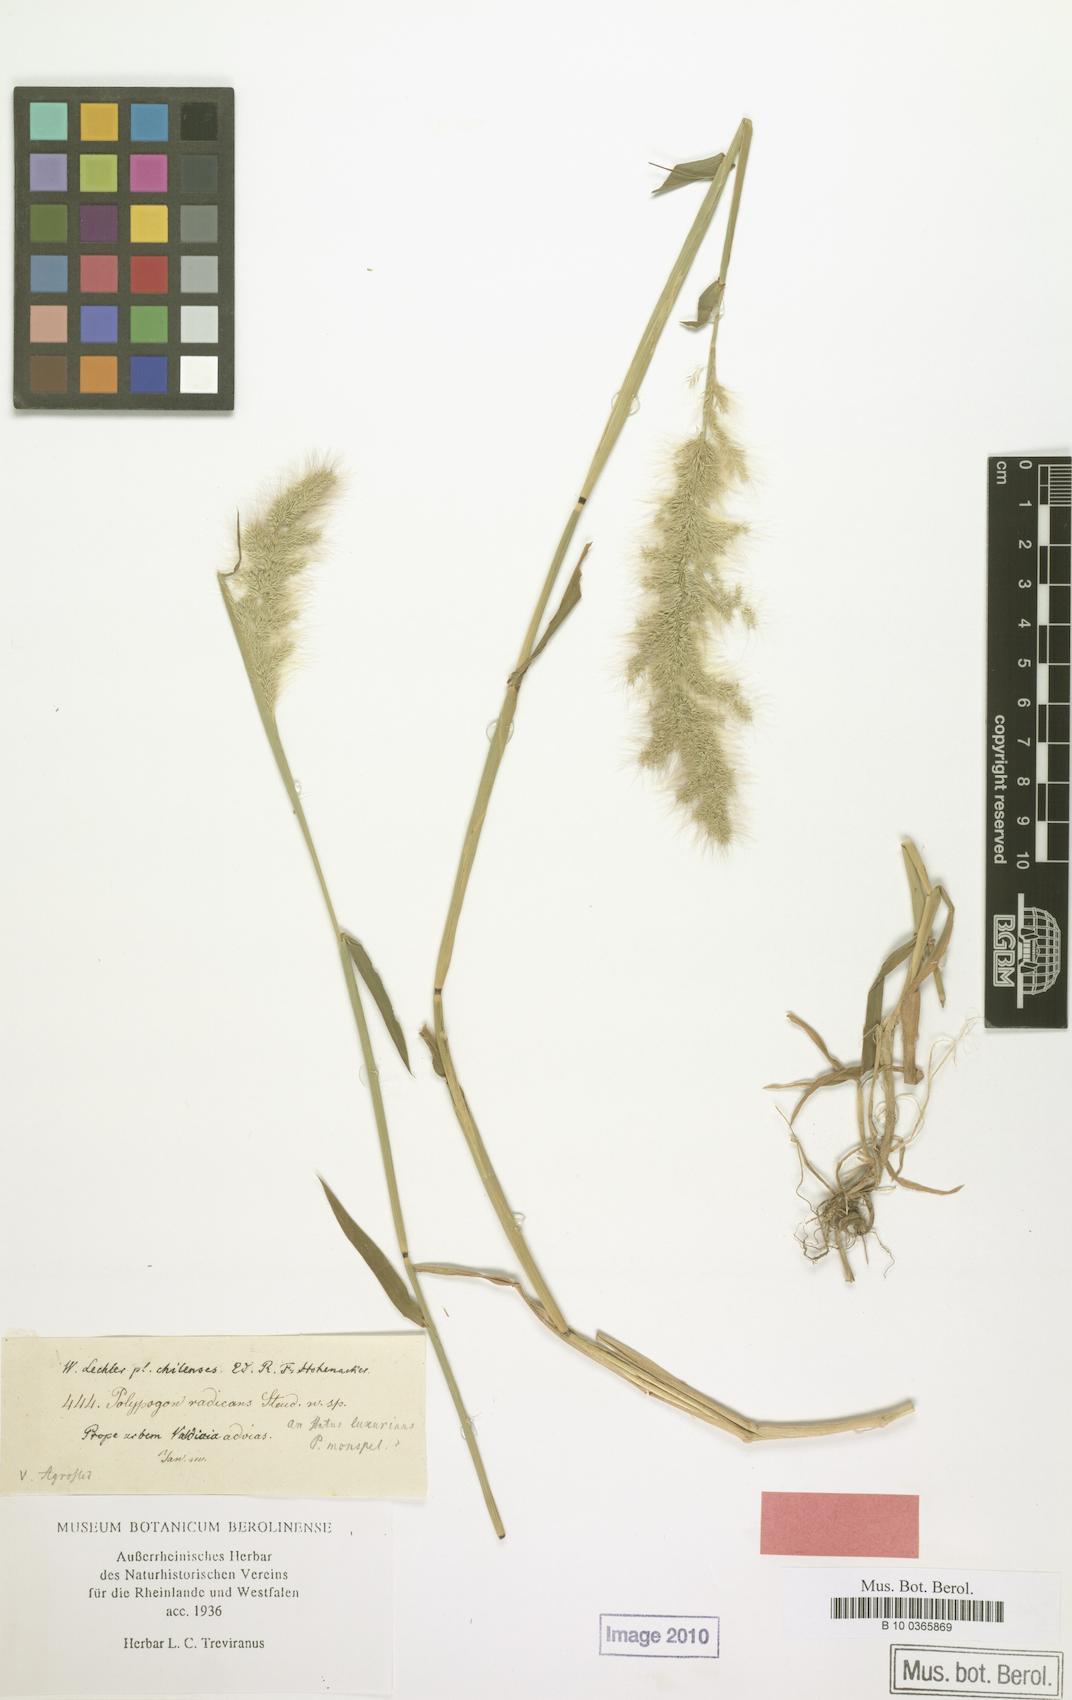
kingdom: Plantae
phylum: Tracheophyta
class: Liliopsida
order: Poales
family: Poaceae
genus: Polypogon
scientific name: Polypogon australis
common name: Chilean rabbitsfoot grass
